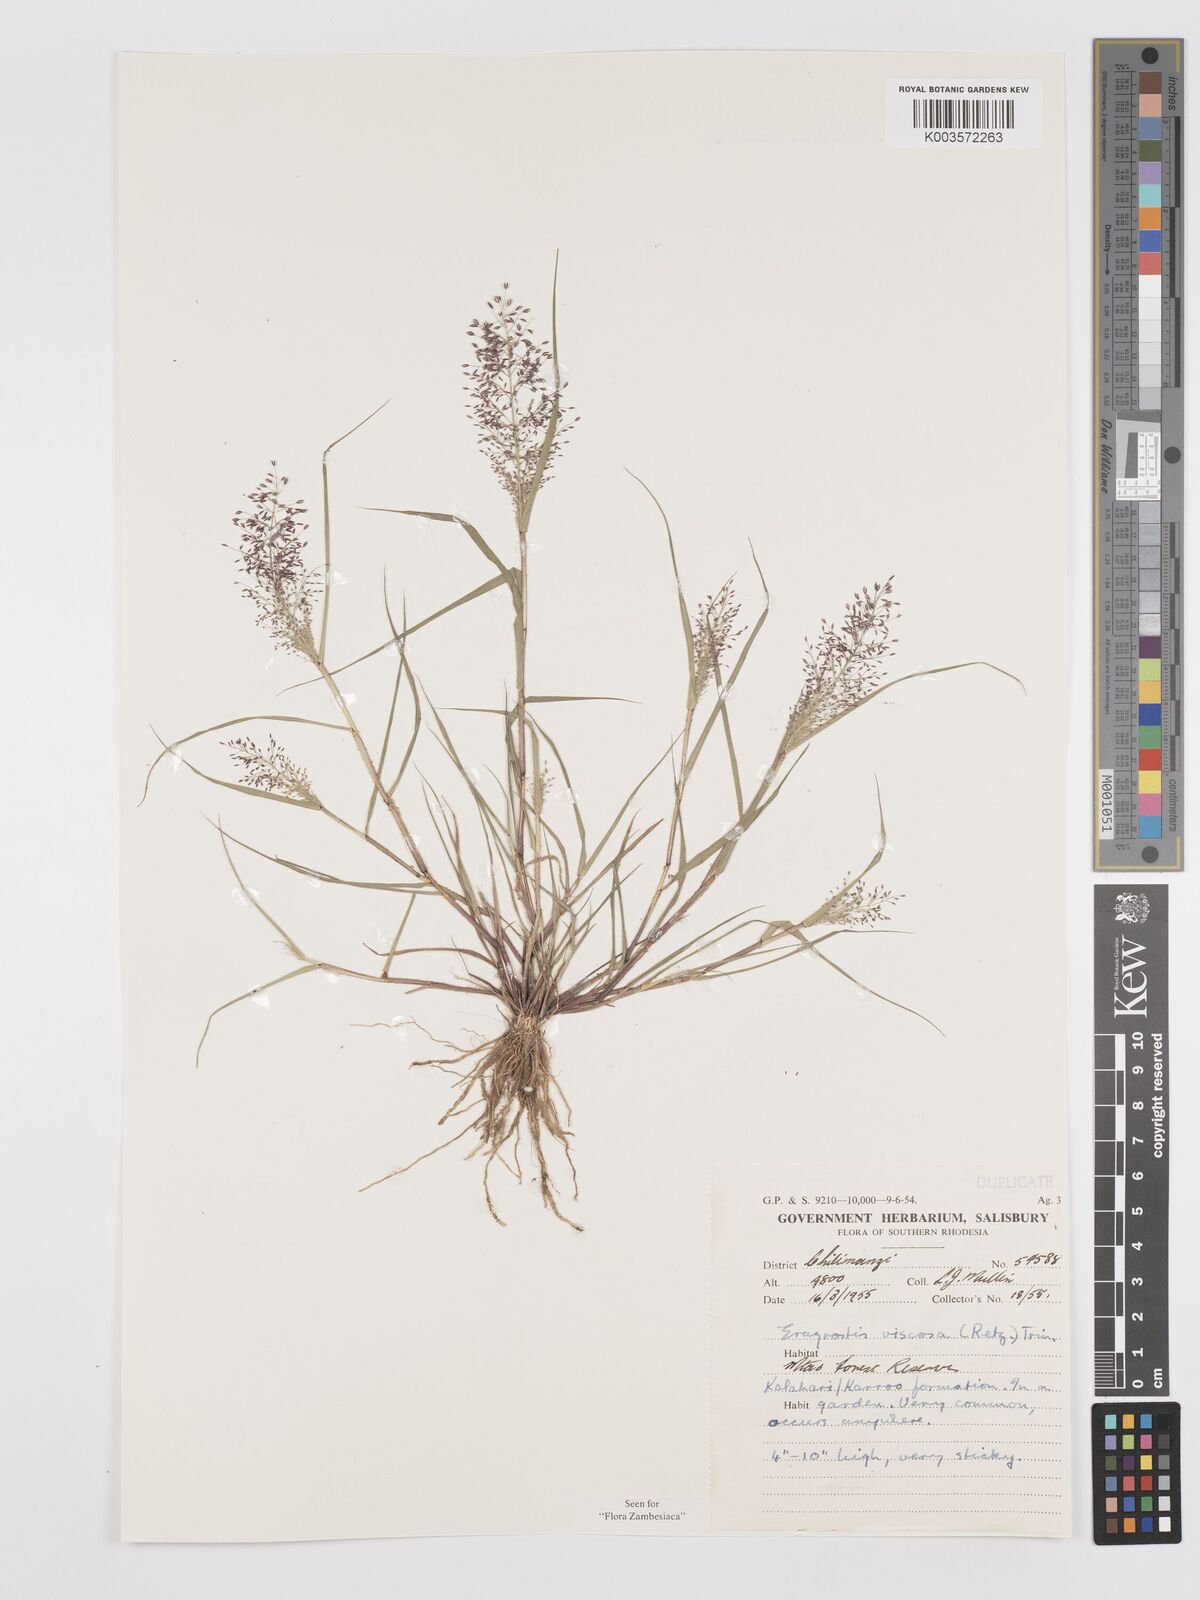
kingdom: Plantae
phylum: Tracheophyta
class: Liliopsida
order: Poales
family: Poaceae
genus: Eragrostis
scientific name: Eragrostis
